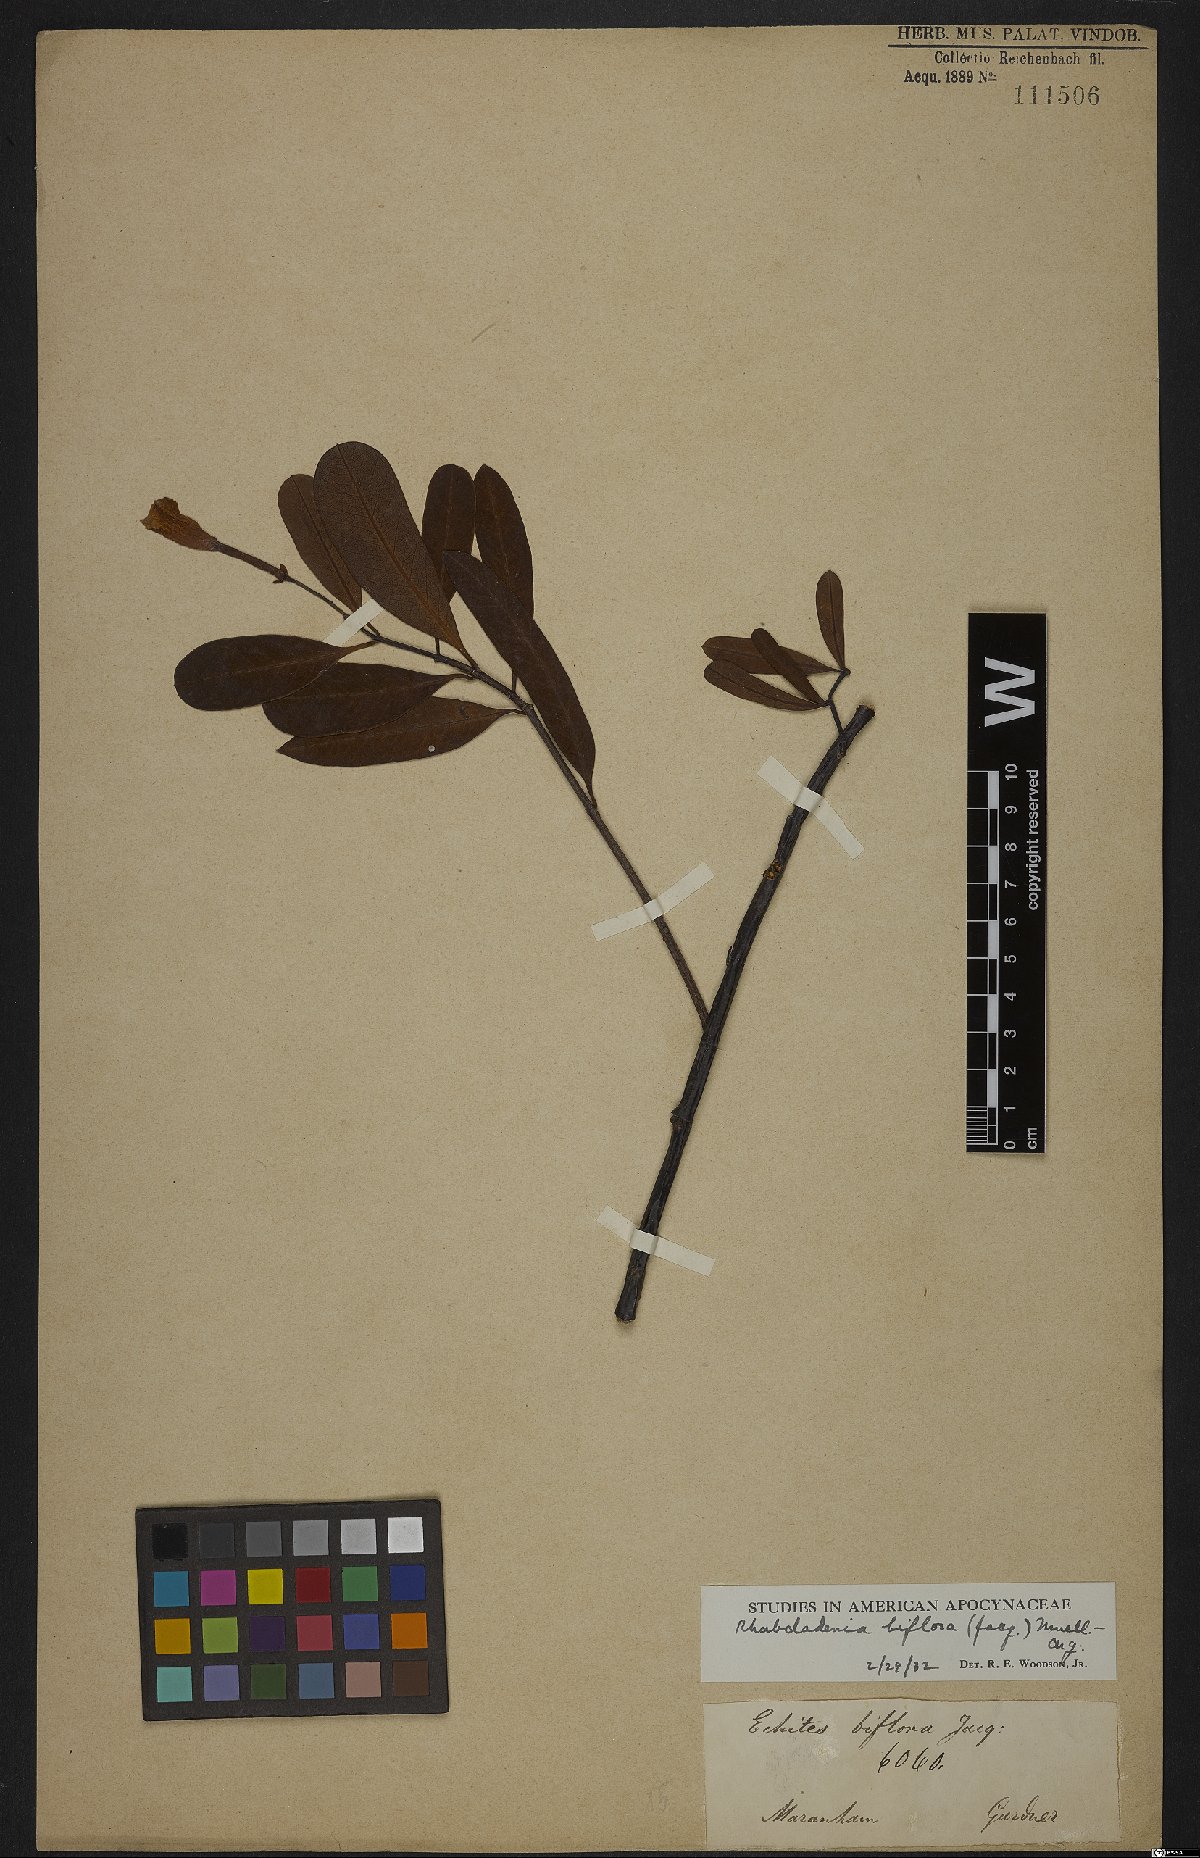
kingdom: Plantae
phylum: Tracheophyta
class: Magnoliopsida
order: Gentianales
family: Apocynaceae
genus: Rhabdadenia
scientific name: Rhabdadenia biflora
